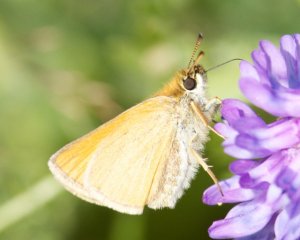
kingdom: Animalia
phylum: Arthropoda
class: Insecta
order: Lepidoptera
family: Hesperiidae
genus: Thymelicus
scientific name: Thymelicus lineola
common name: European Skipper
